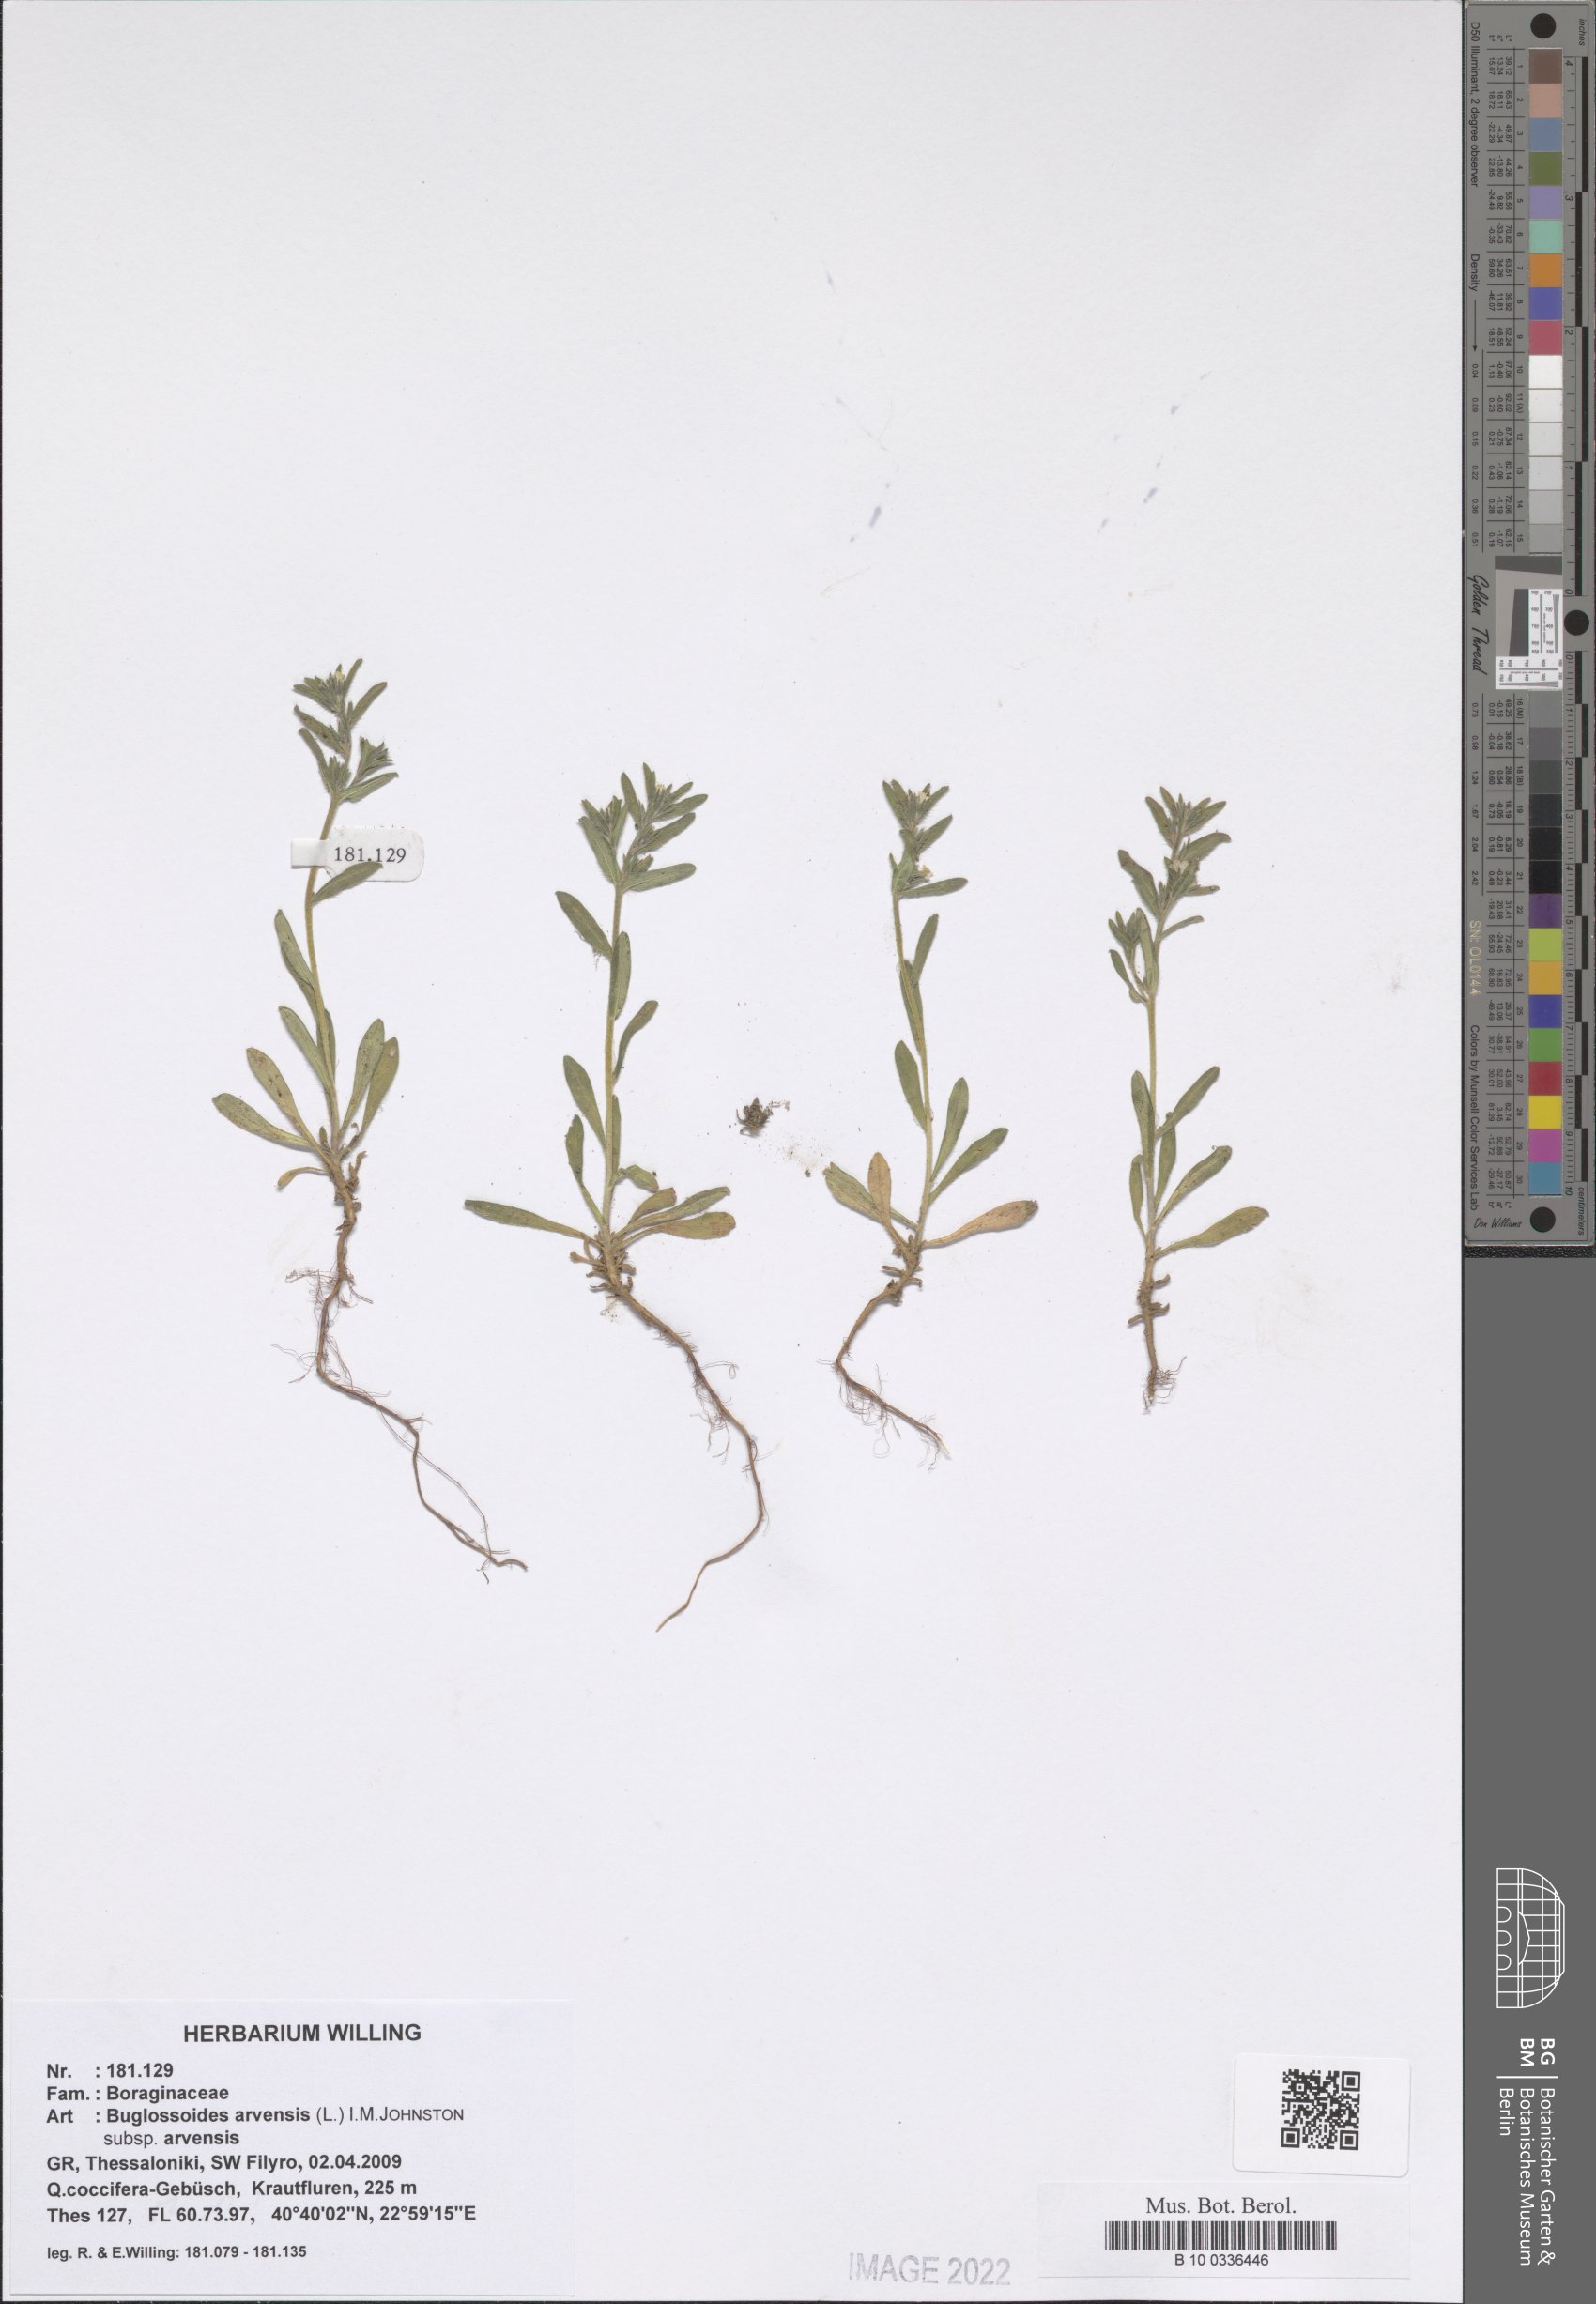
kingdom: Plantae
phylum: Tracheophyta
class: Magnoliopsida
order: Boraginales
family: Boraginaceae
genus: Buglossoides
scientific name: Buglossoides arvensis
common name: Corn gromwell
